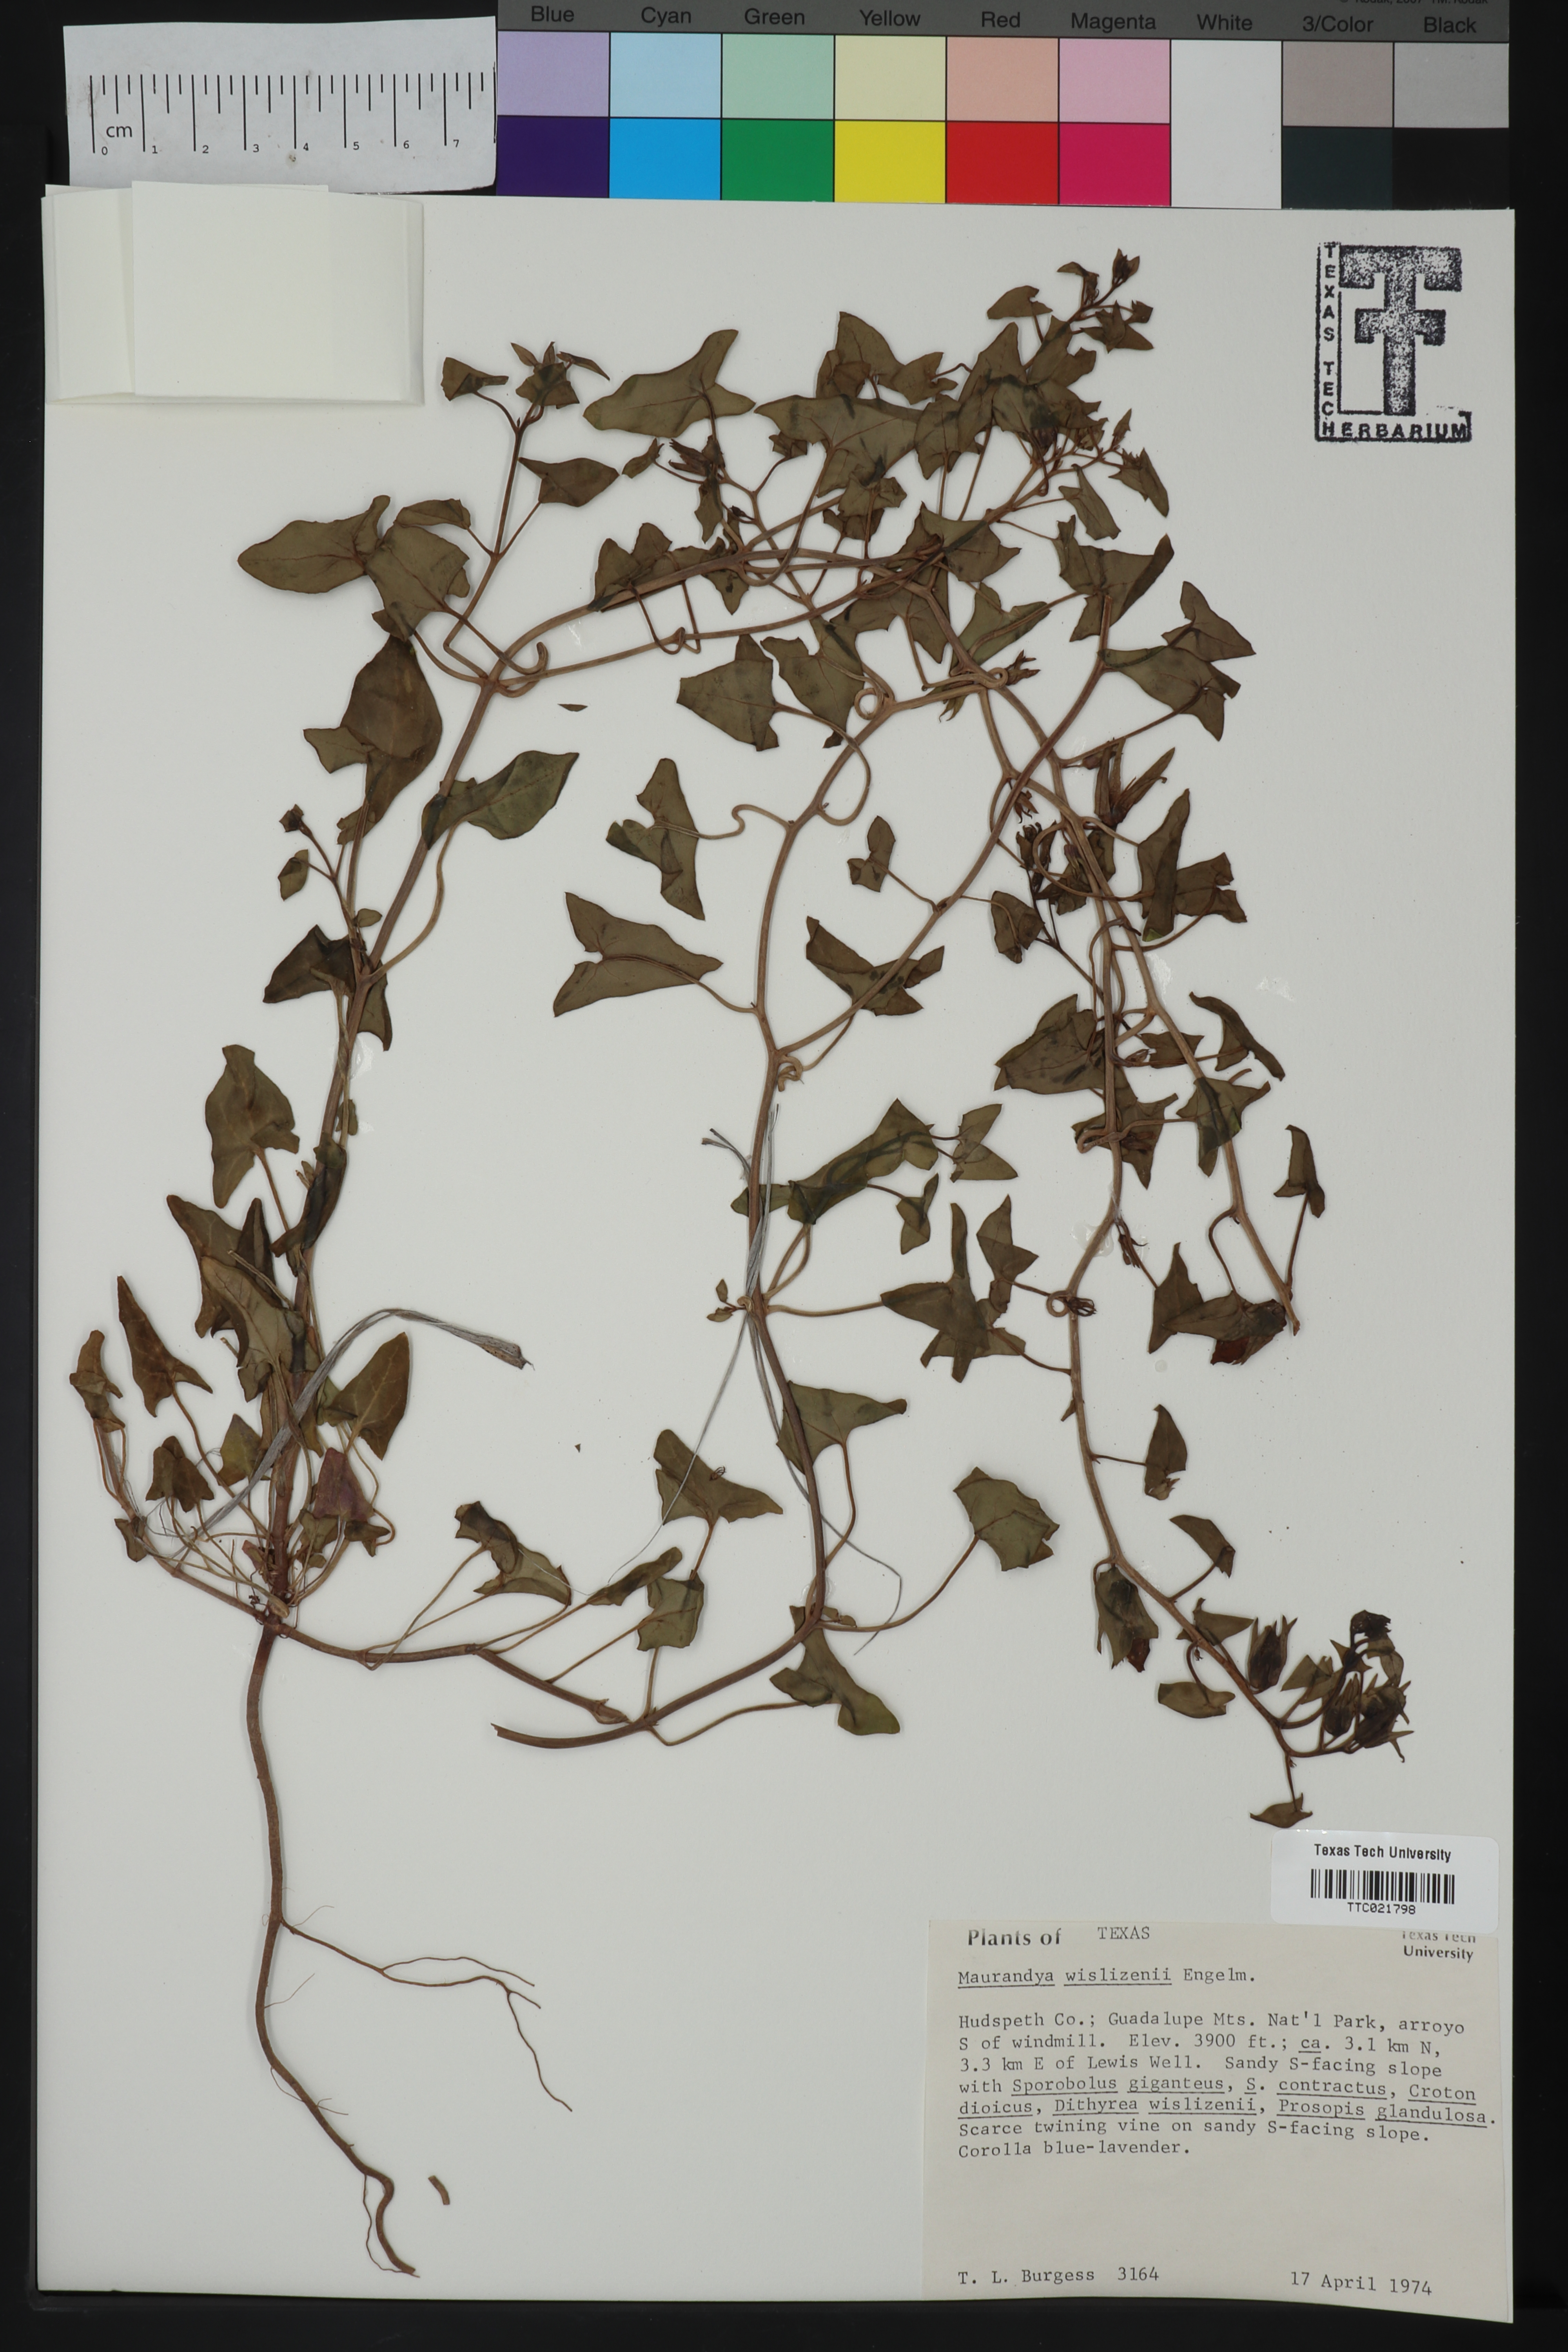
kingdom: Plantae
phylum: Tracheophyta
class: Magnoliopsida
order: Lamiales
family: Plantaginaceae
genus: Epixiphium
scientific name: Epixiphium wislizeni
